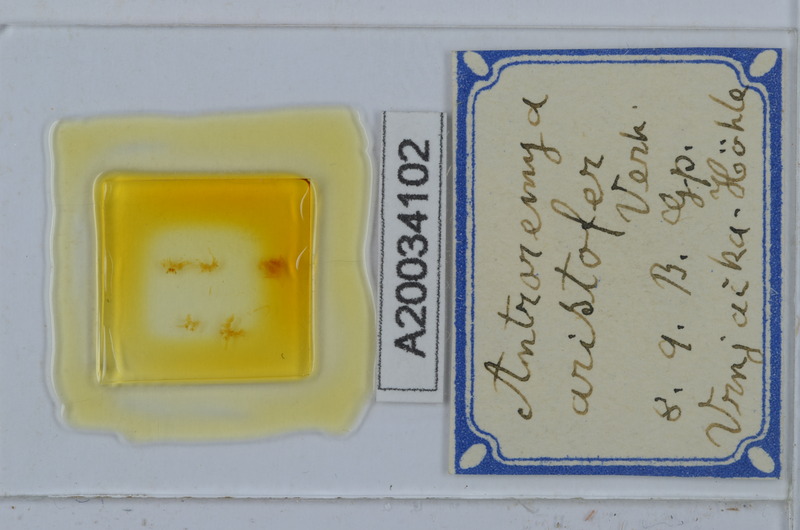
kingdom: Animalia
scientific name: Animalia
